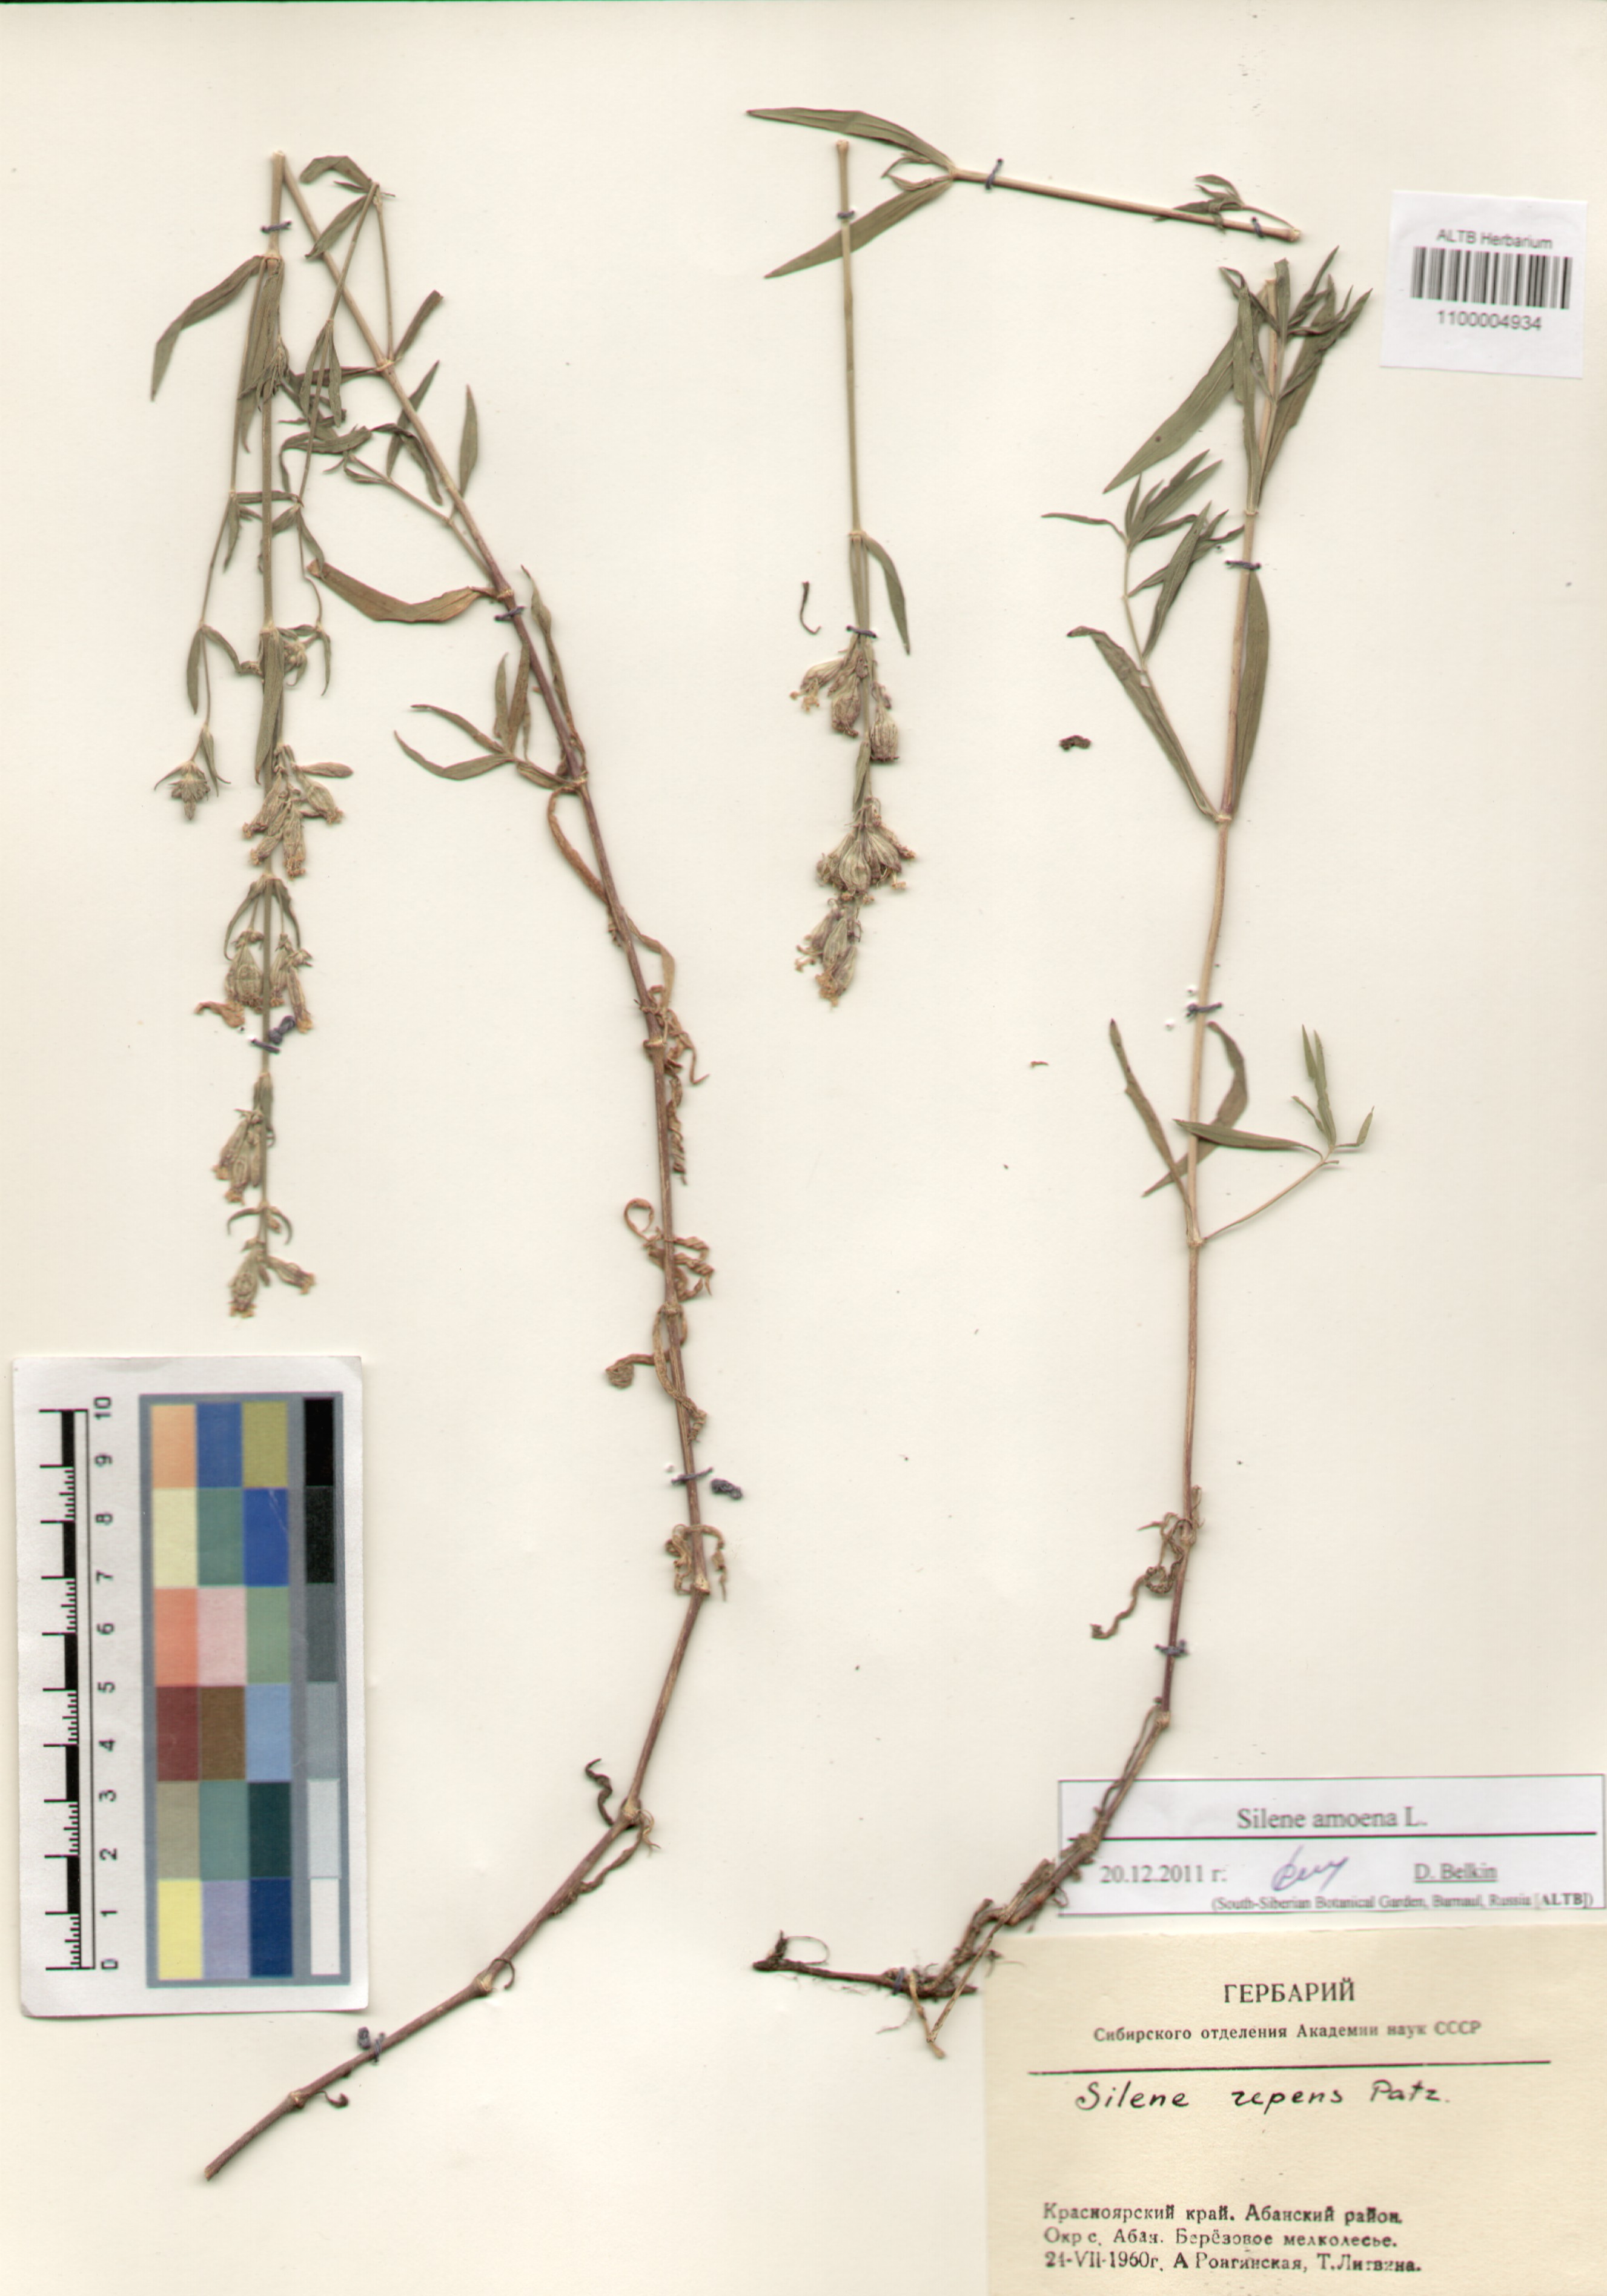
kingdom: Plantae
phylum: Tracheophyta
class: Magnoliopsida
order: Caryophyllales
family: Caryophyllaceae
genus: Silene
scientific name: Silene amoena
